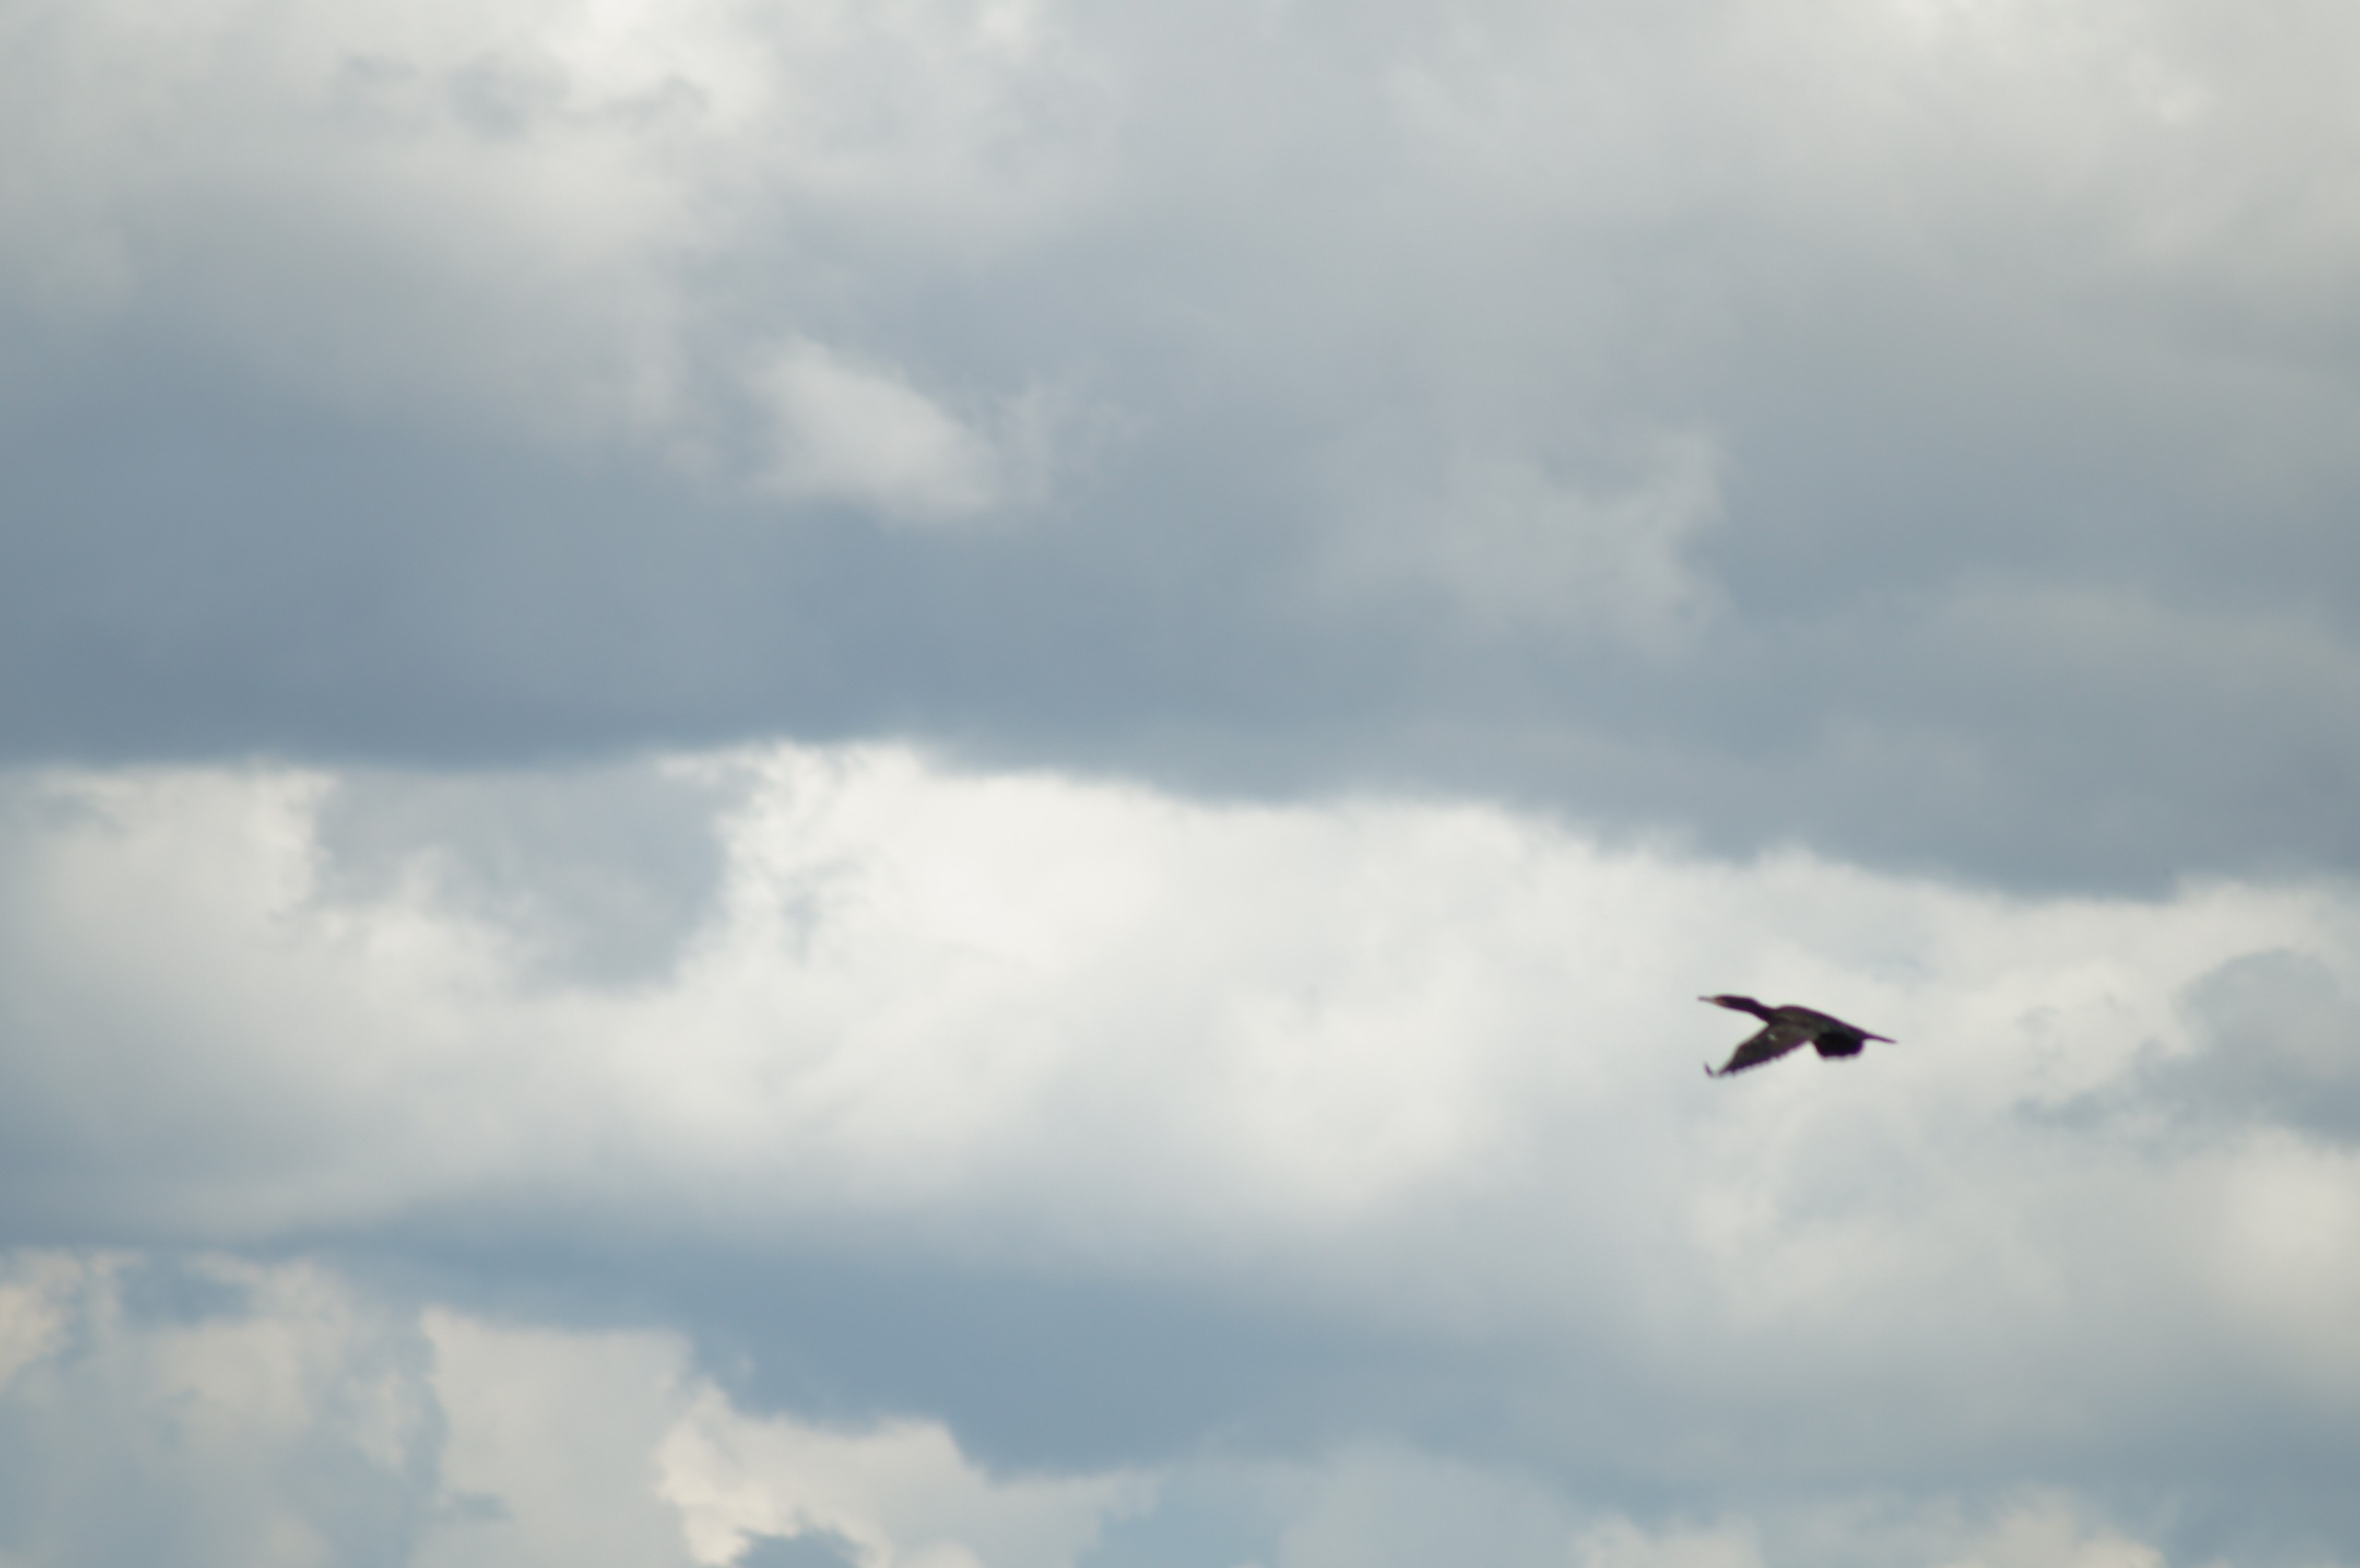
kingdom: Animalia
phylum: Chordata
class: Aves
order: Suliformes
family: Phalacrocoracidae
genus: Phalacrocorax
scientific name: Phalacrocorax carbo
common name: Skarv
